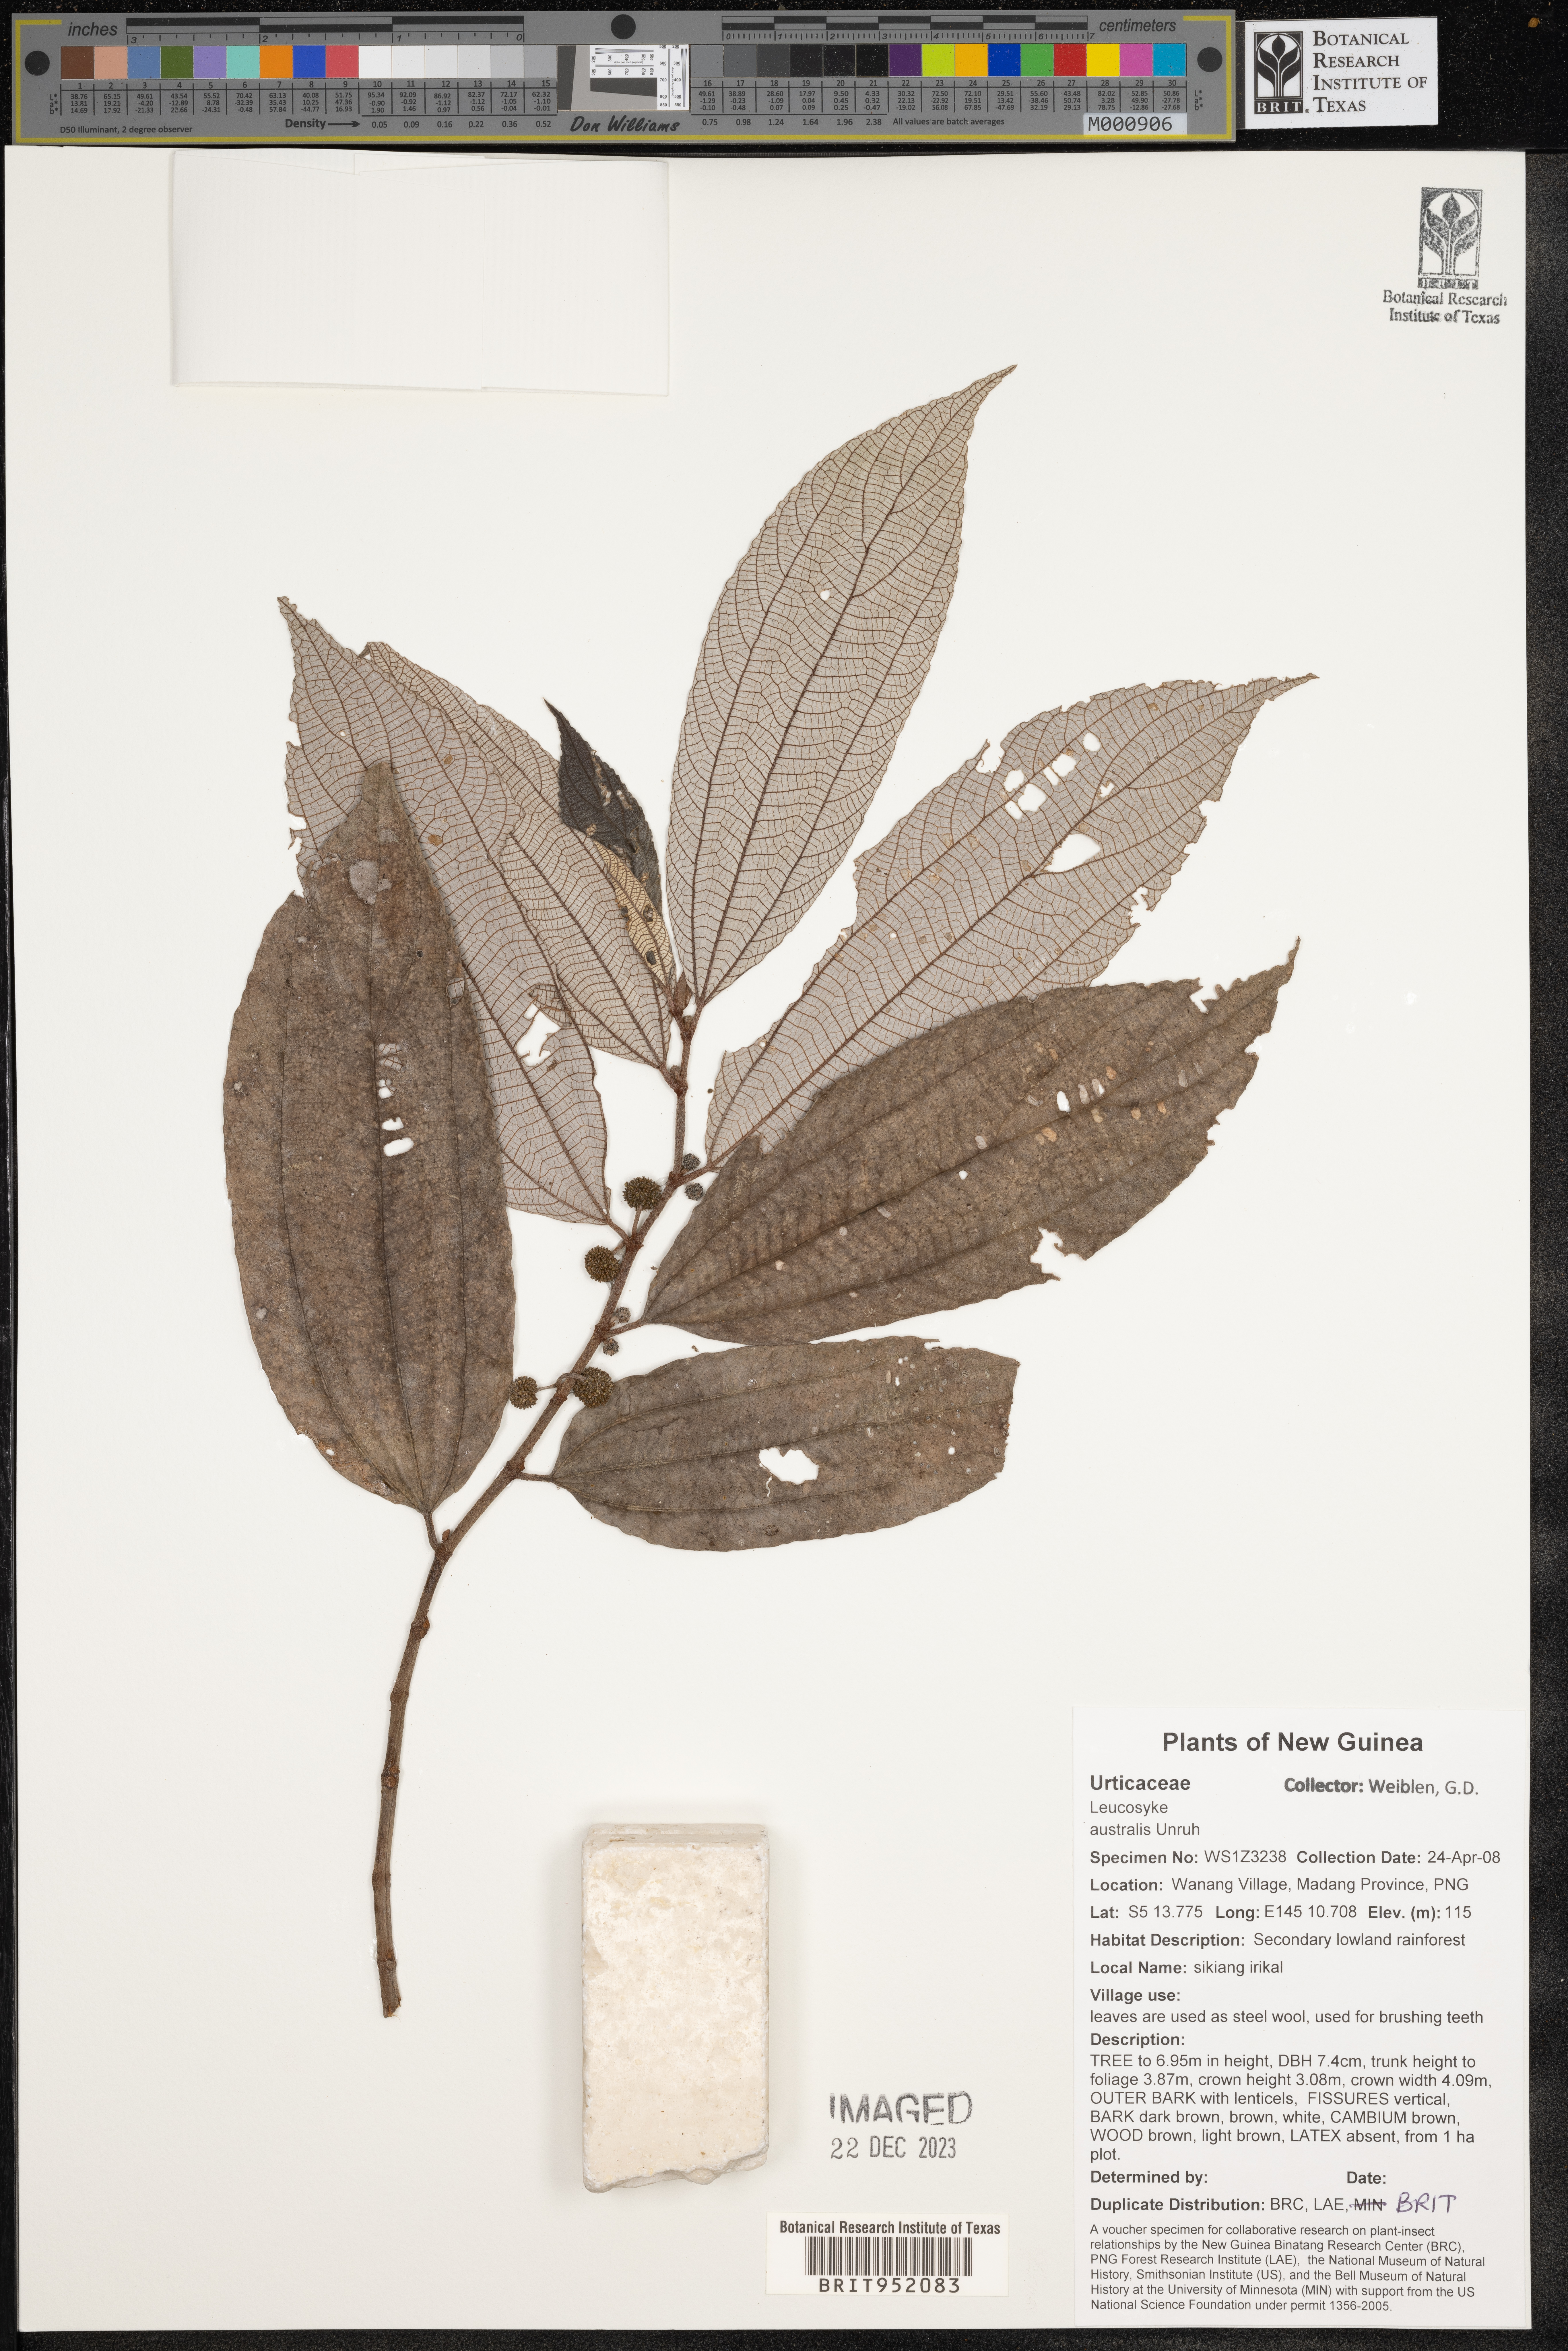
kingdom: Plantae
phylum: Tracheophyta
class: Magnoliopsida
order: Rosales
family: Urticaceae
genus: Leucosyke
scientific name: Leucosyke
